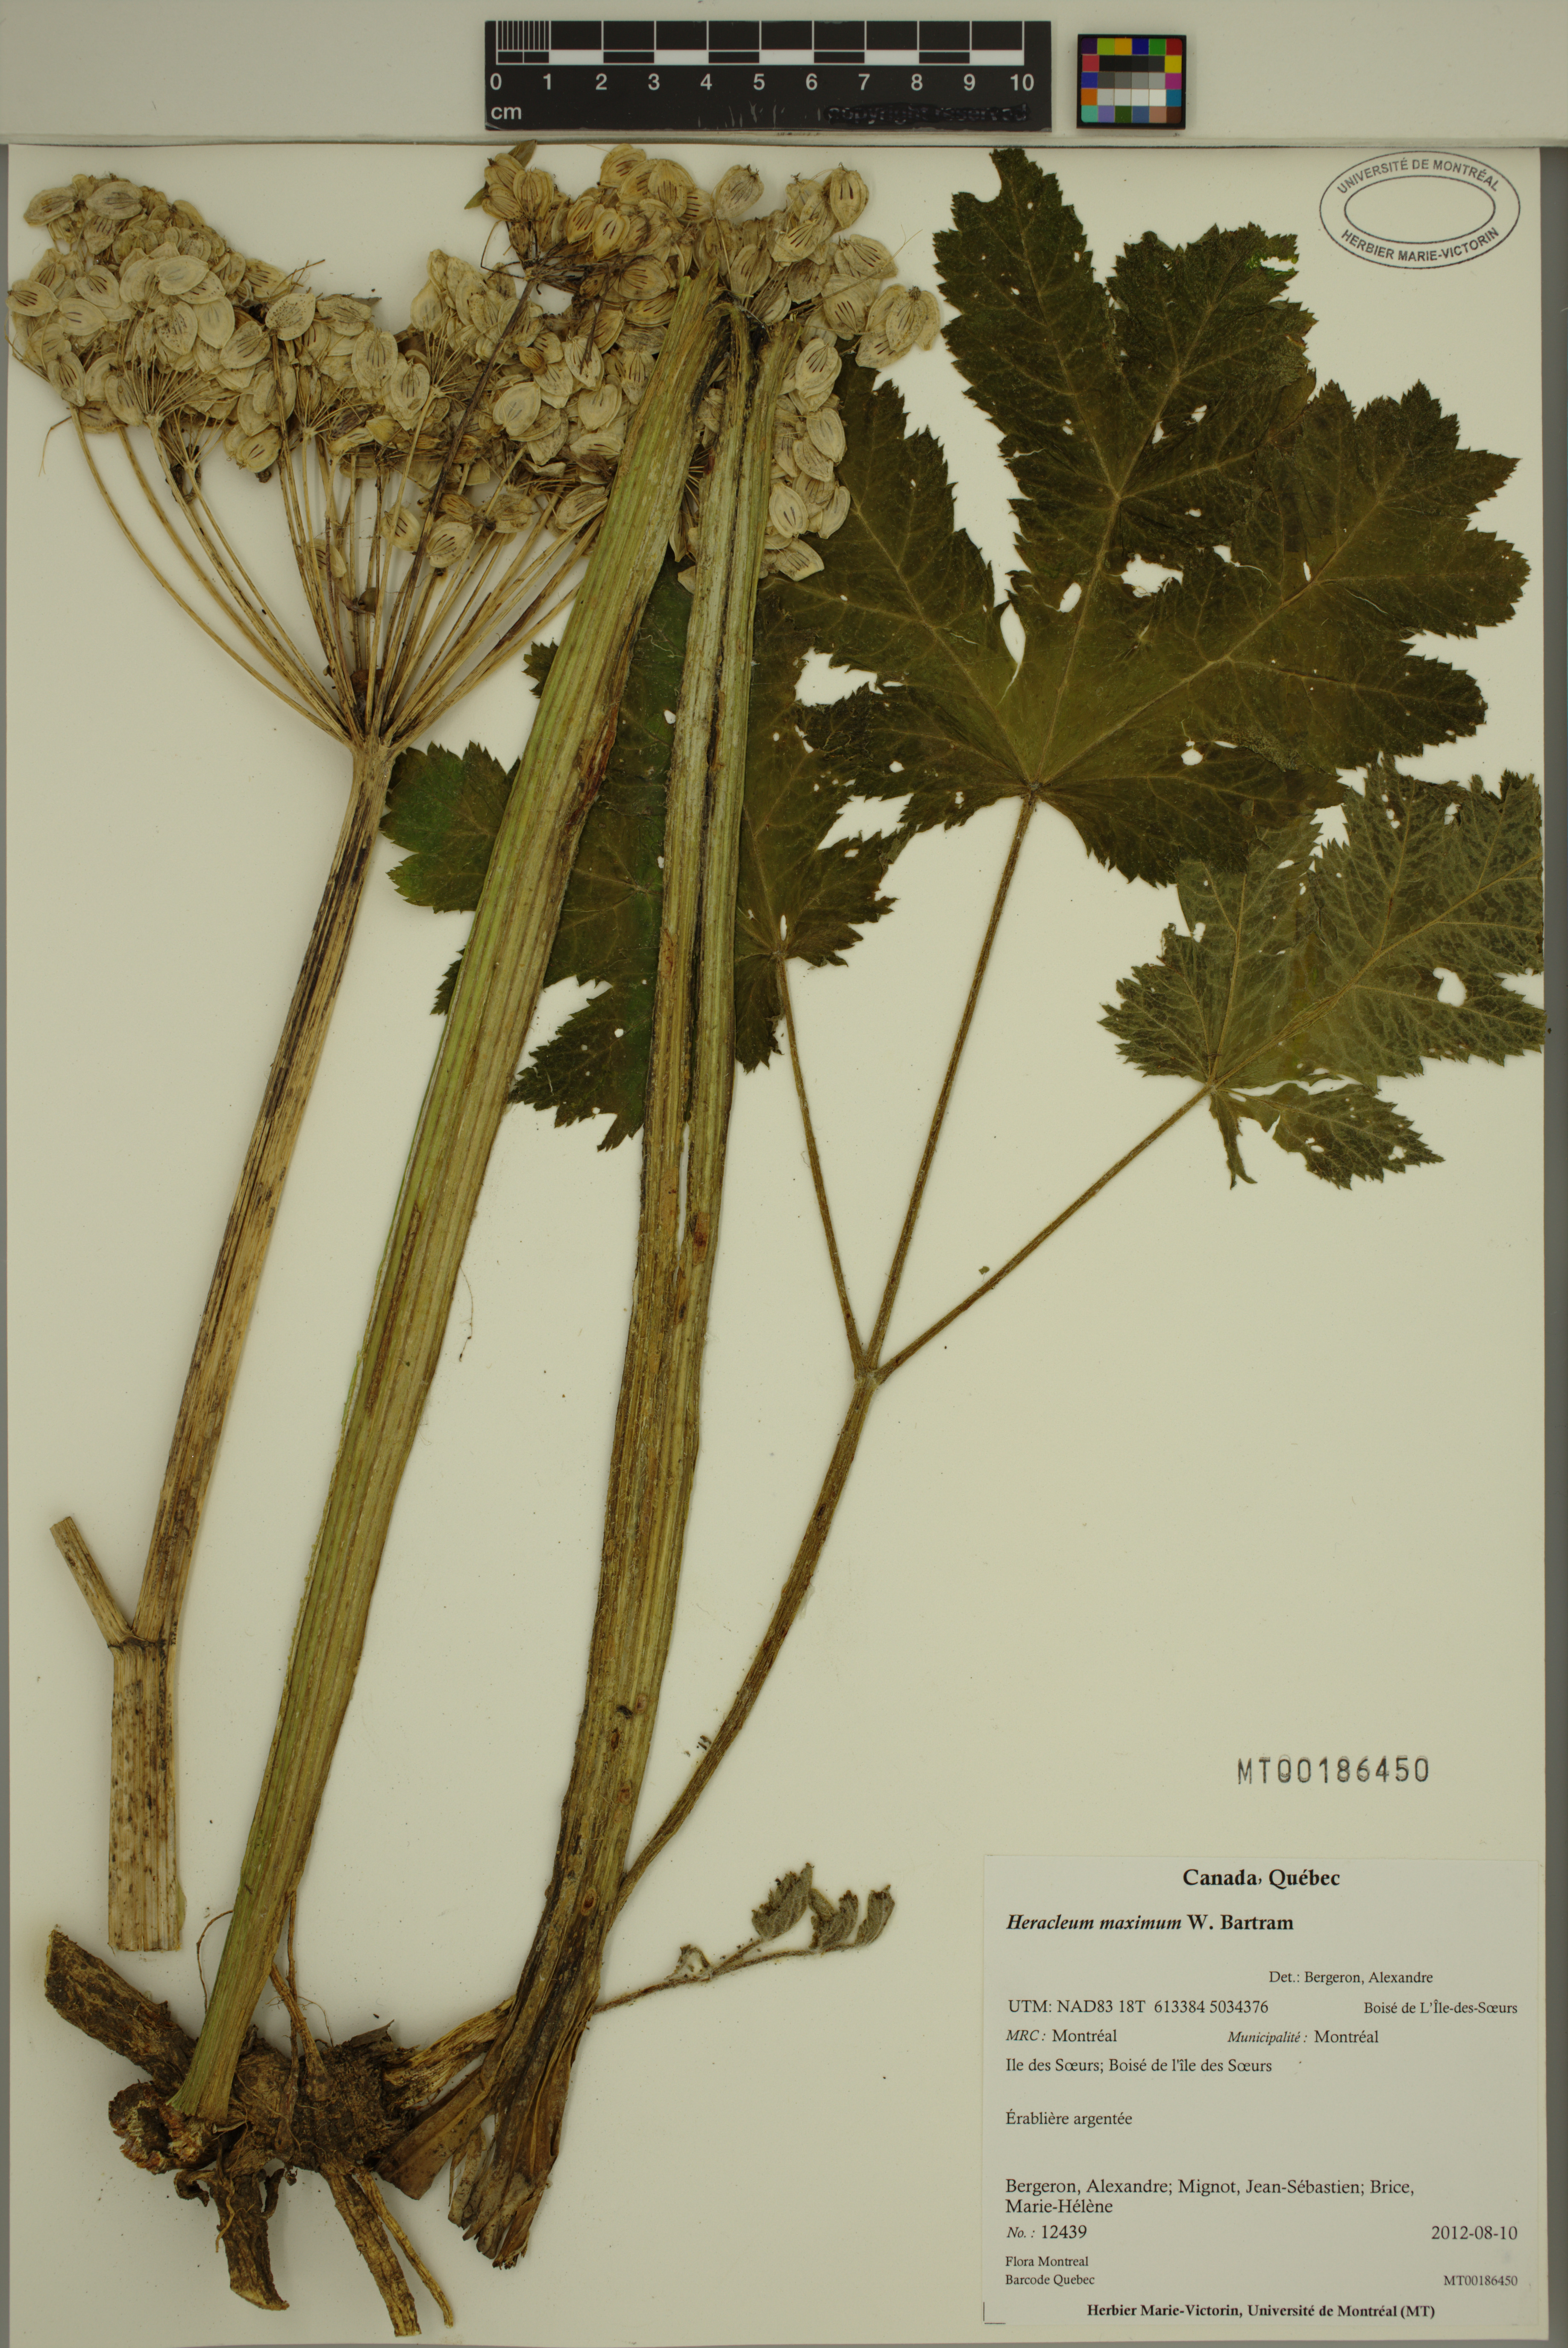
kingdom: Plantae
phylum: Tracheophyta
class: Magnoliopsida
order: Apiales
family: Apiaceae
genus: Heracleum
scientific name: Heracleum maximum
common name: American cow parsnip
